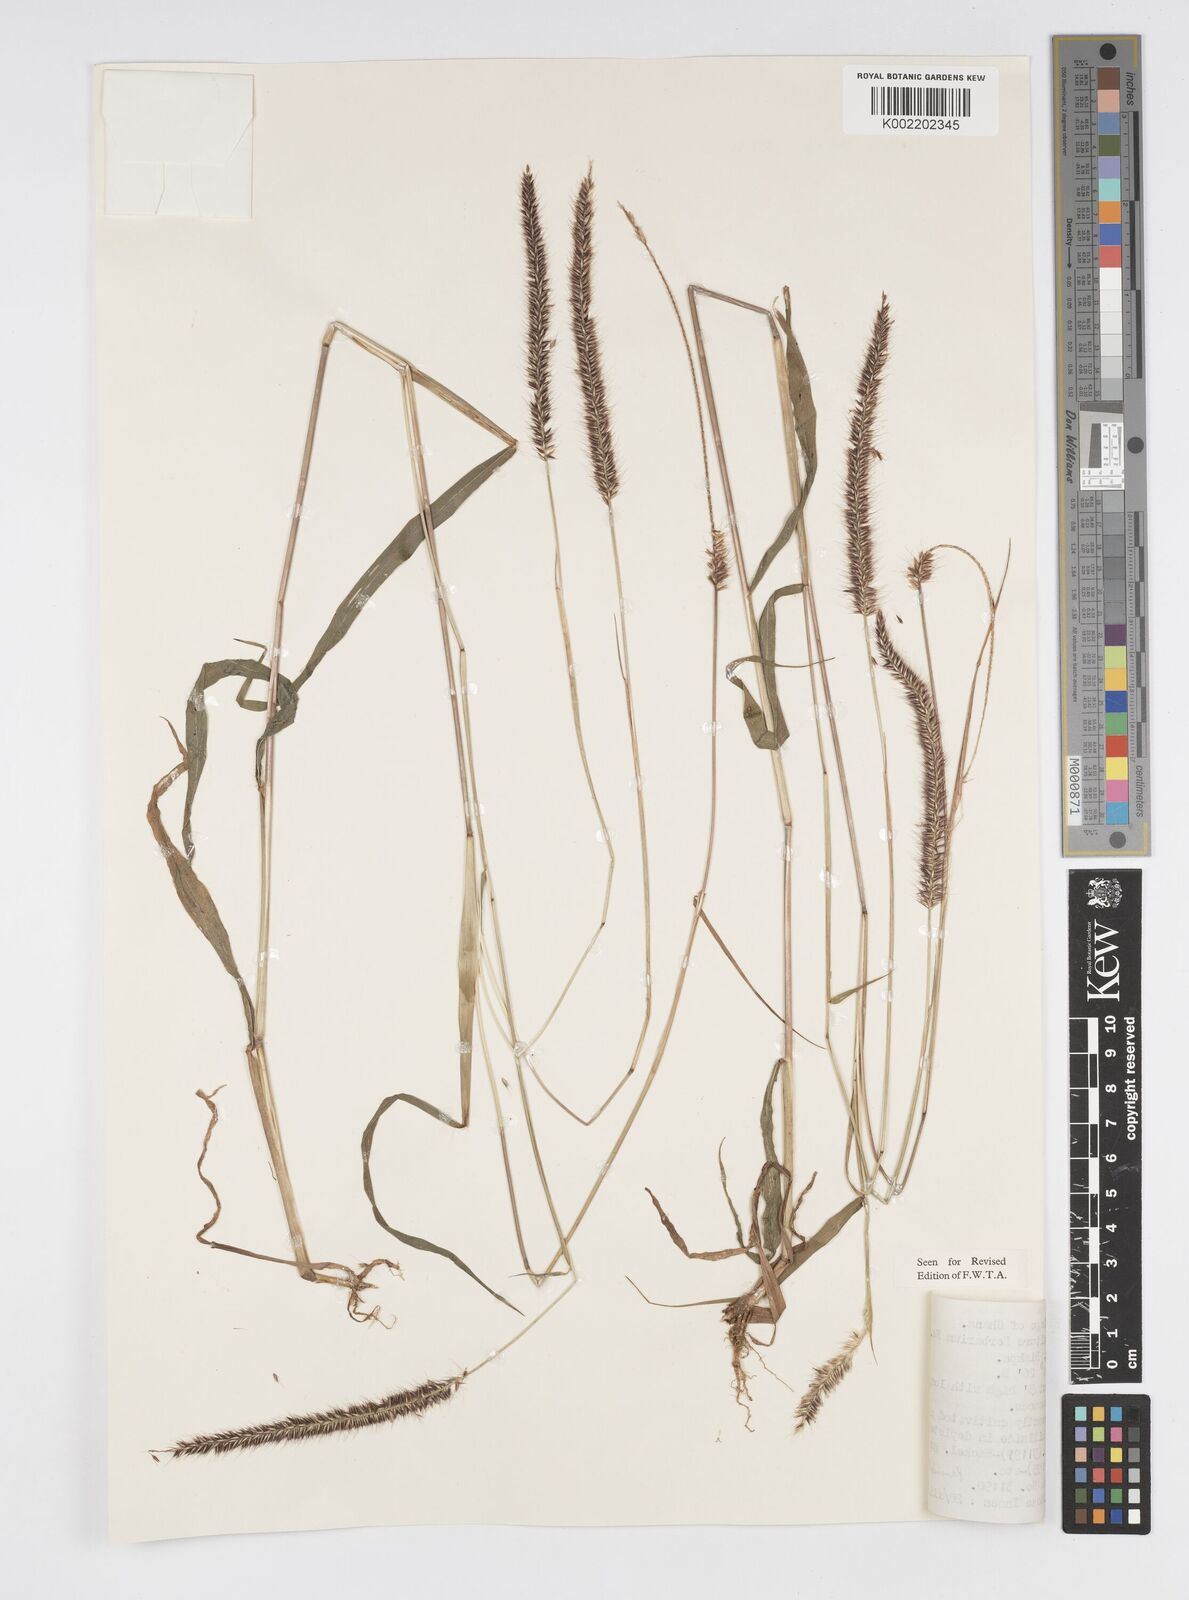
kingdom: Plantae
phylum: Tracheophyta
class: Liliopsida
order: Poales
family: Poaceae
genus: Cenchrus
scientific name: Cenchrus hordeoides
